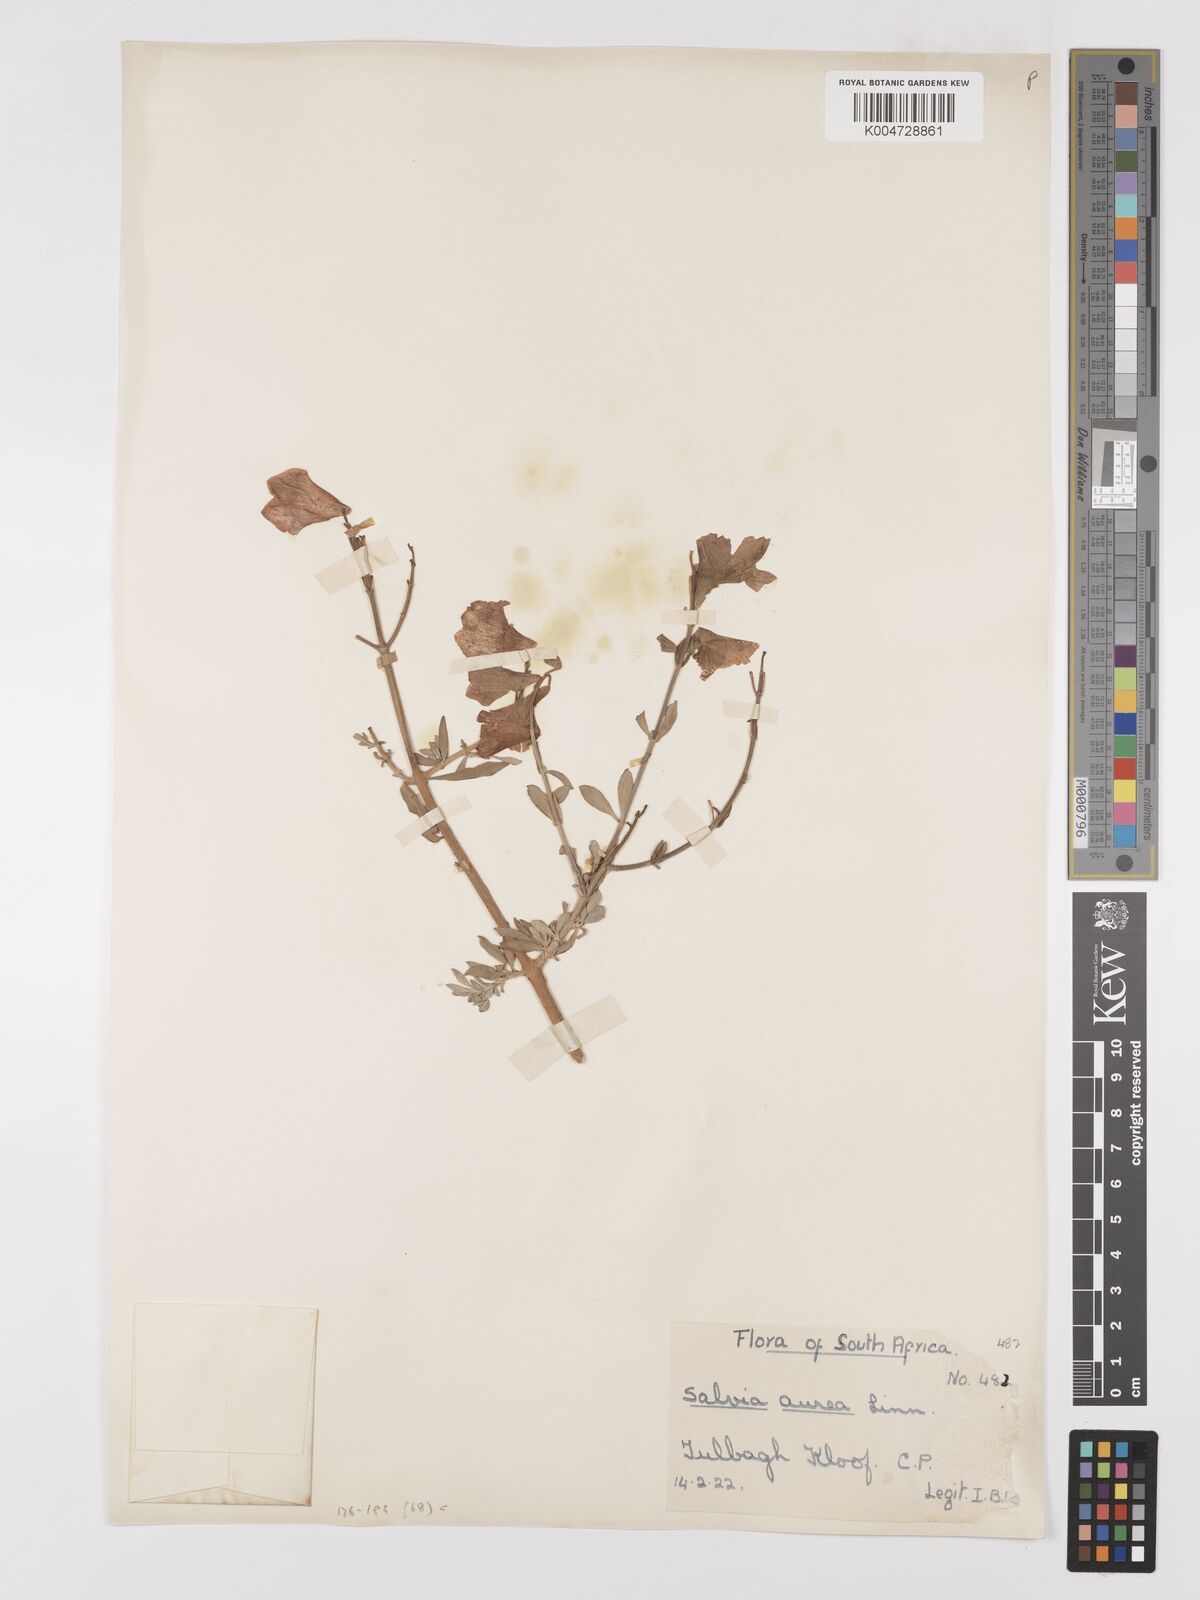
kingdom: Plantae
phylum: Tracheophyta
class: Magnoliopsida
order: Lamiales
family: Lamiaceae
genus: Salvia
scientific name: Salvia aurea
